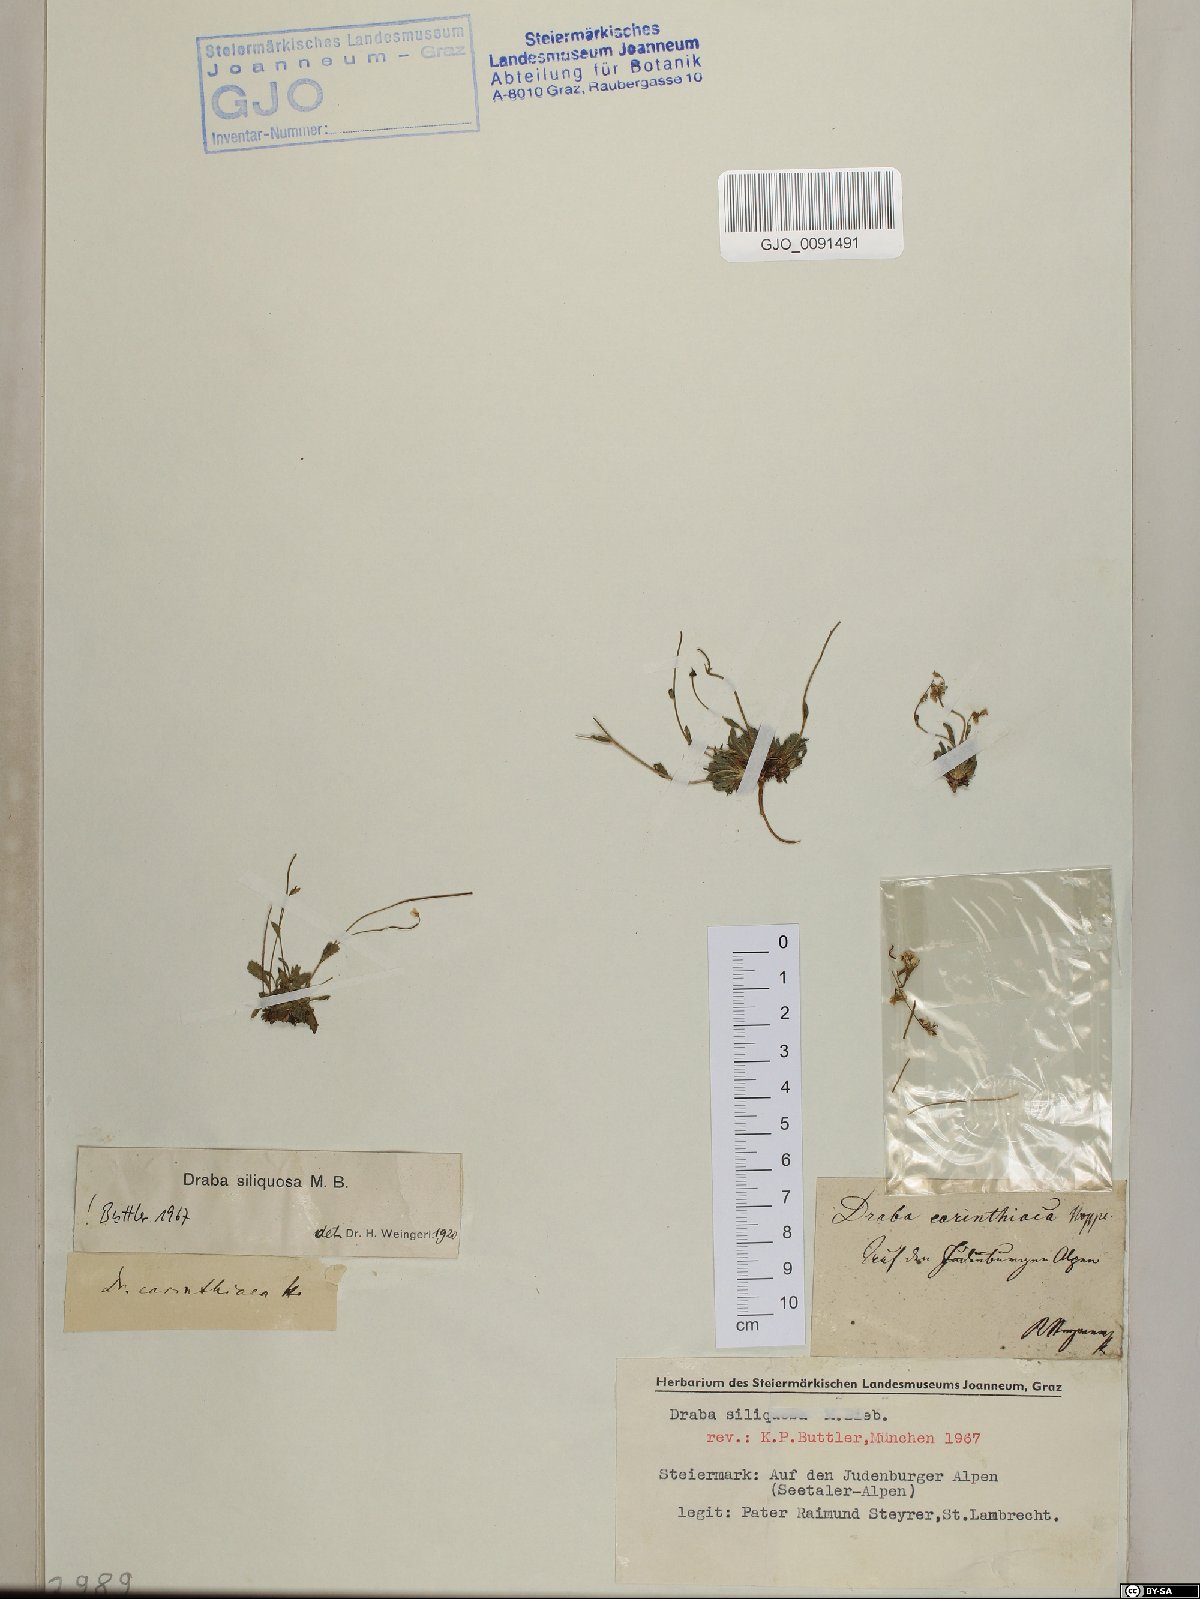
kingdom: Plantae
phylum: Tracheophyta
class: Magnoliopsida
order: Brassicales
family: Brassicaceae
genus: Draba
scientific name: Draba siliquosa
